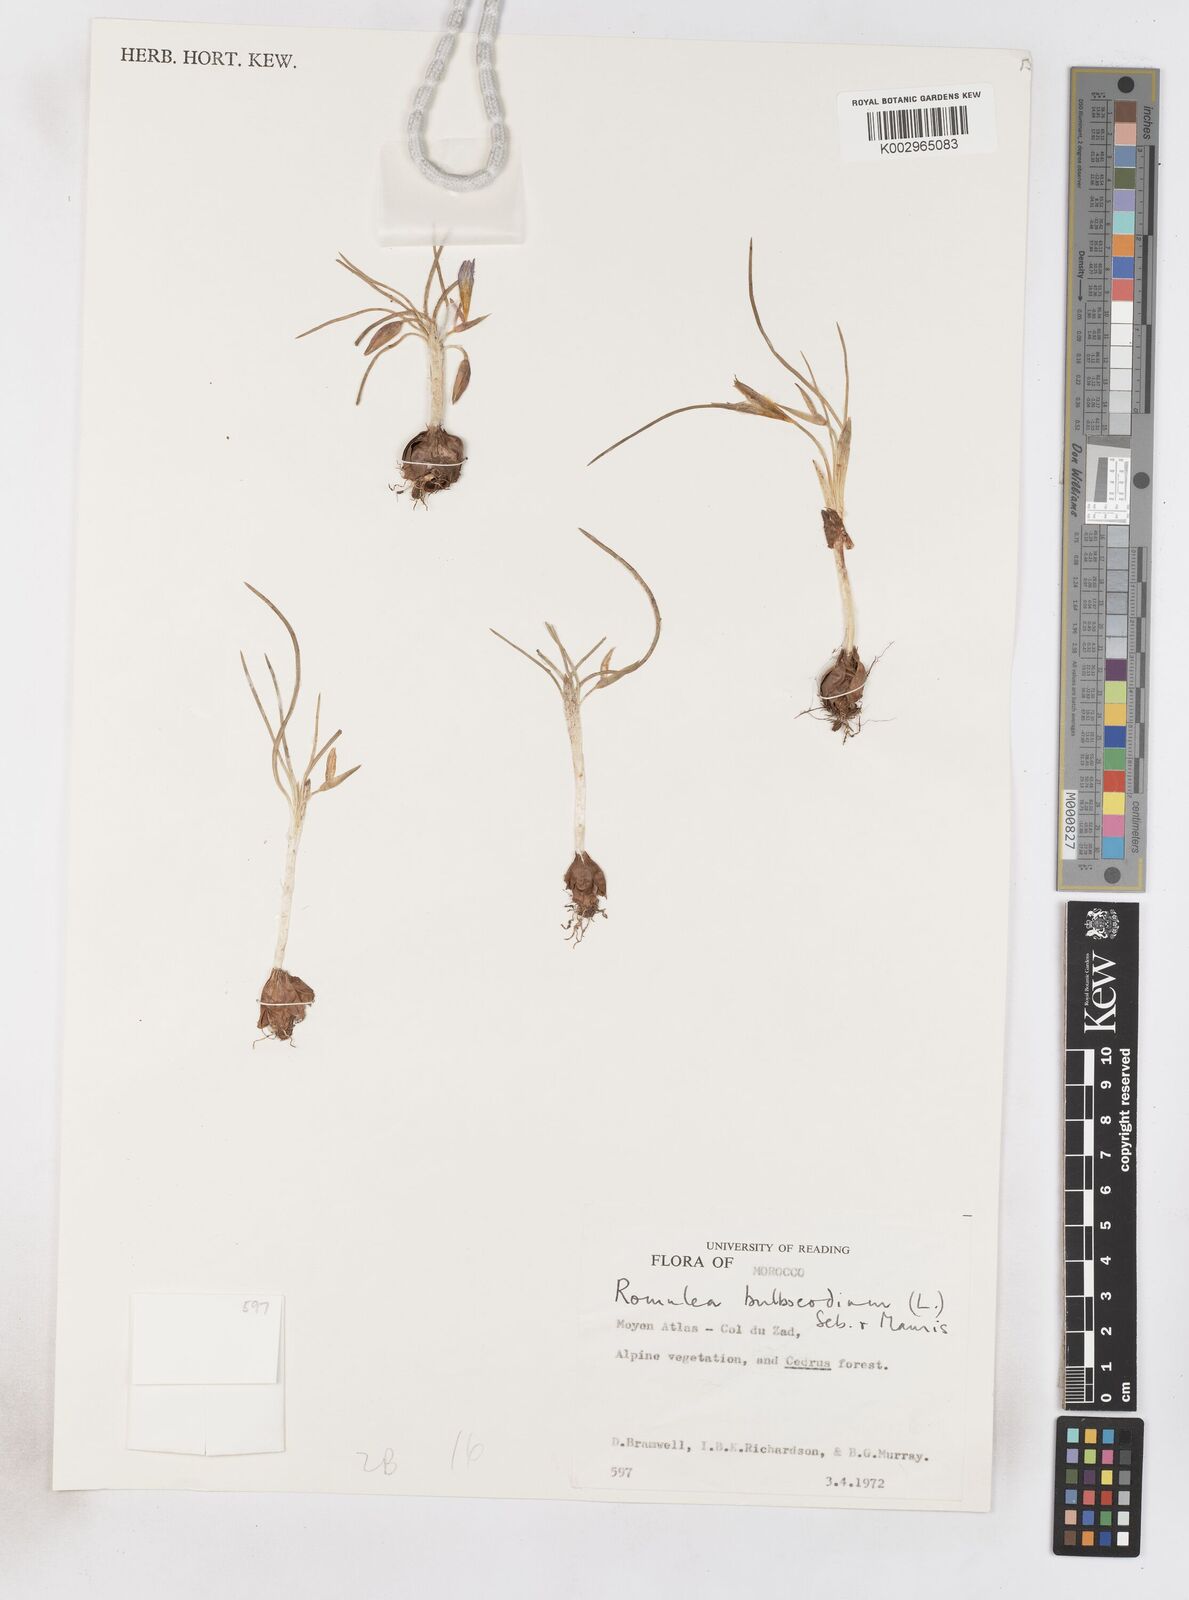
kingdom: Plantae
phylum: Tracheophyta
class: Liliopsida
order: Asparagales
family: Iridaceae
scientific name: Iridaceae
